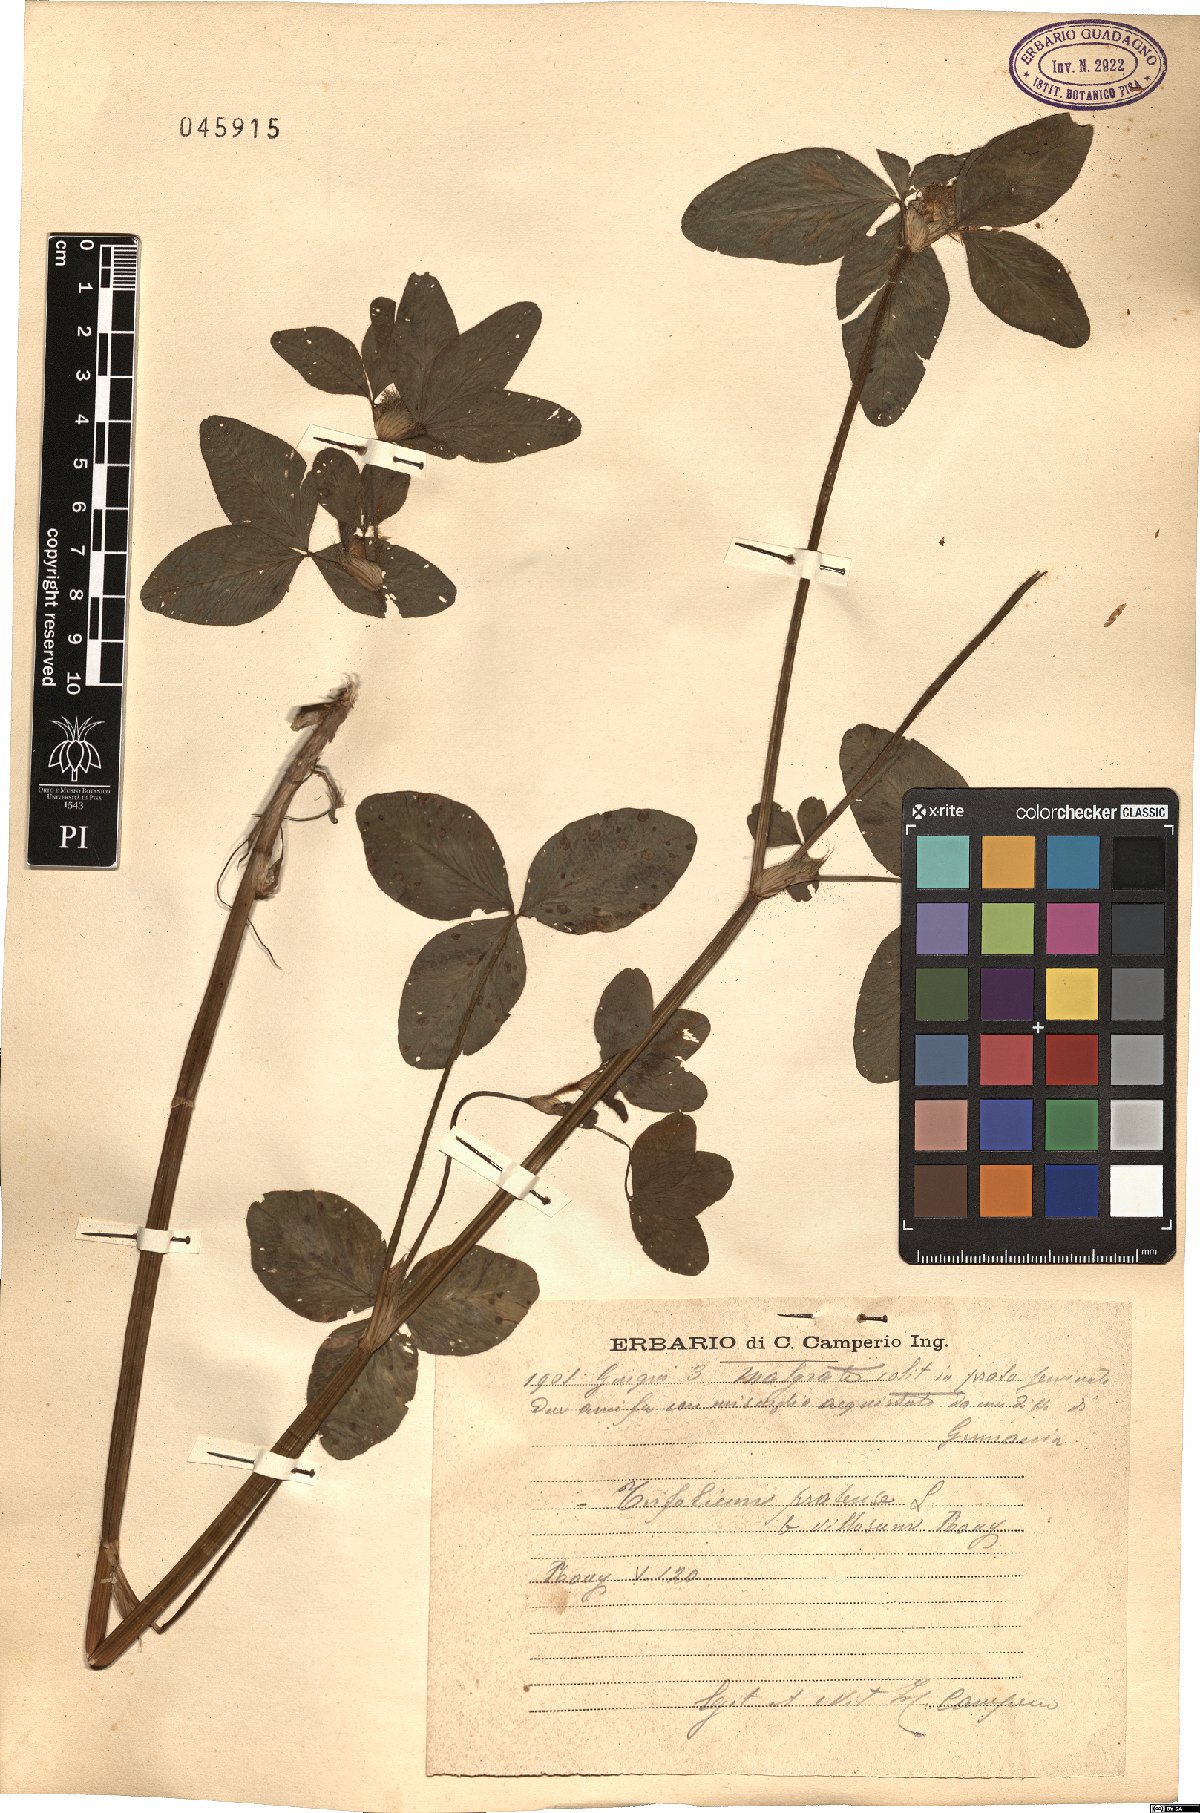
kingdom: Plantae
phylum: Tracheophyta
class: Magnoliopsida
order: Fabales
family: Fabaceae
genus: Trifolium
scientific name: Trifolium pratense
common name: Red clover
